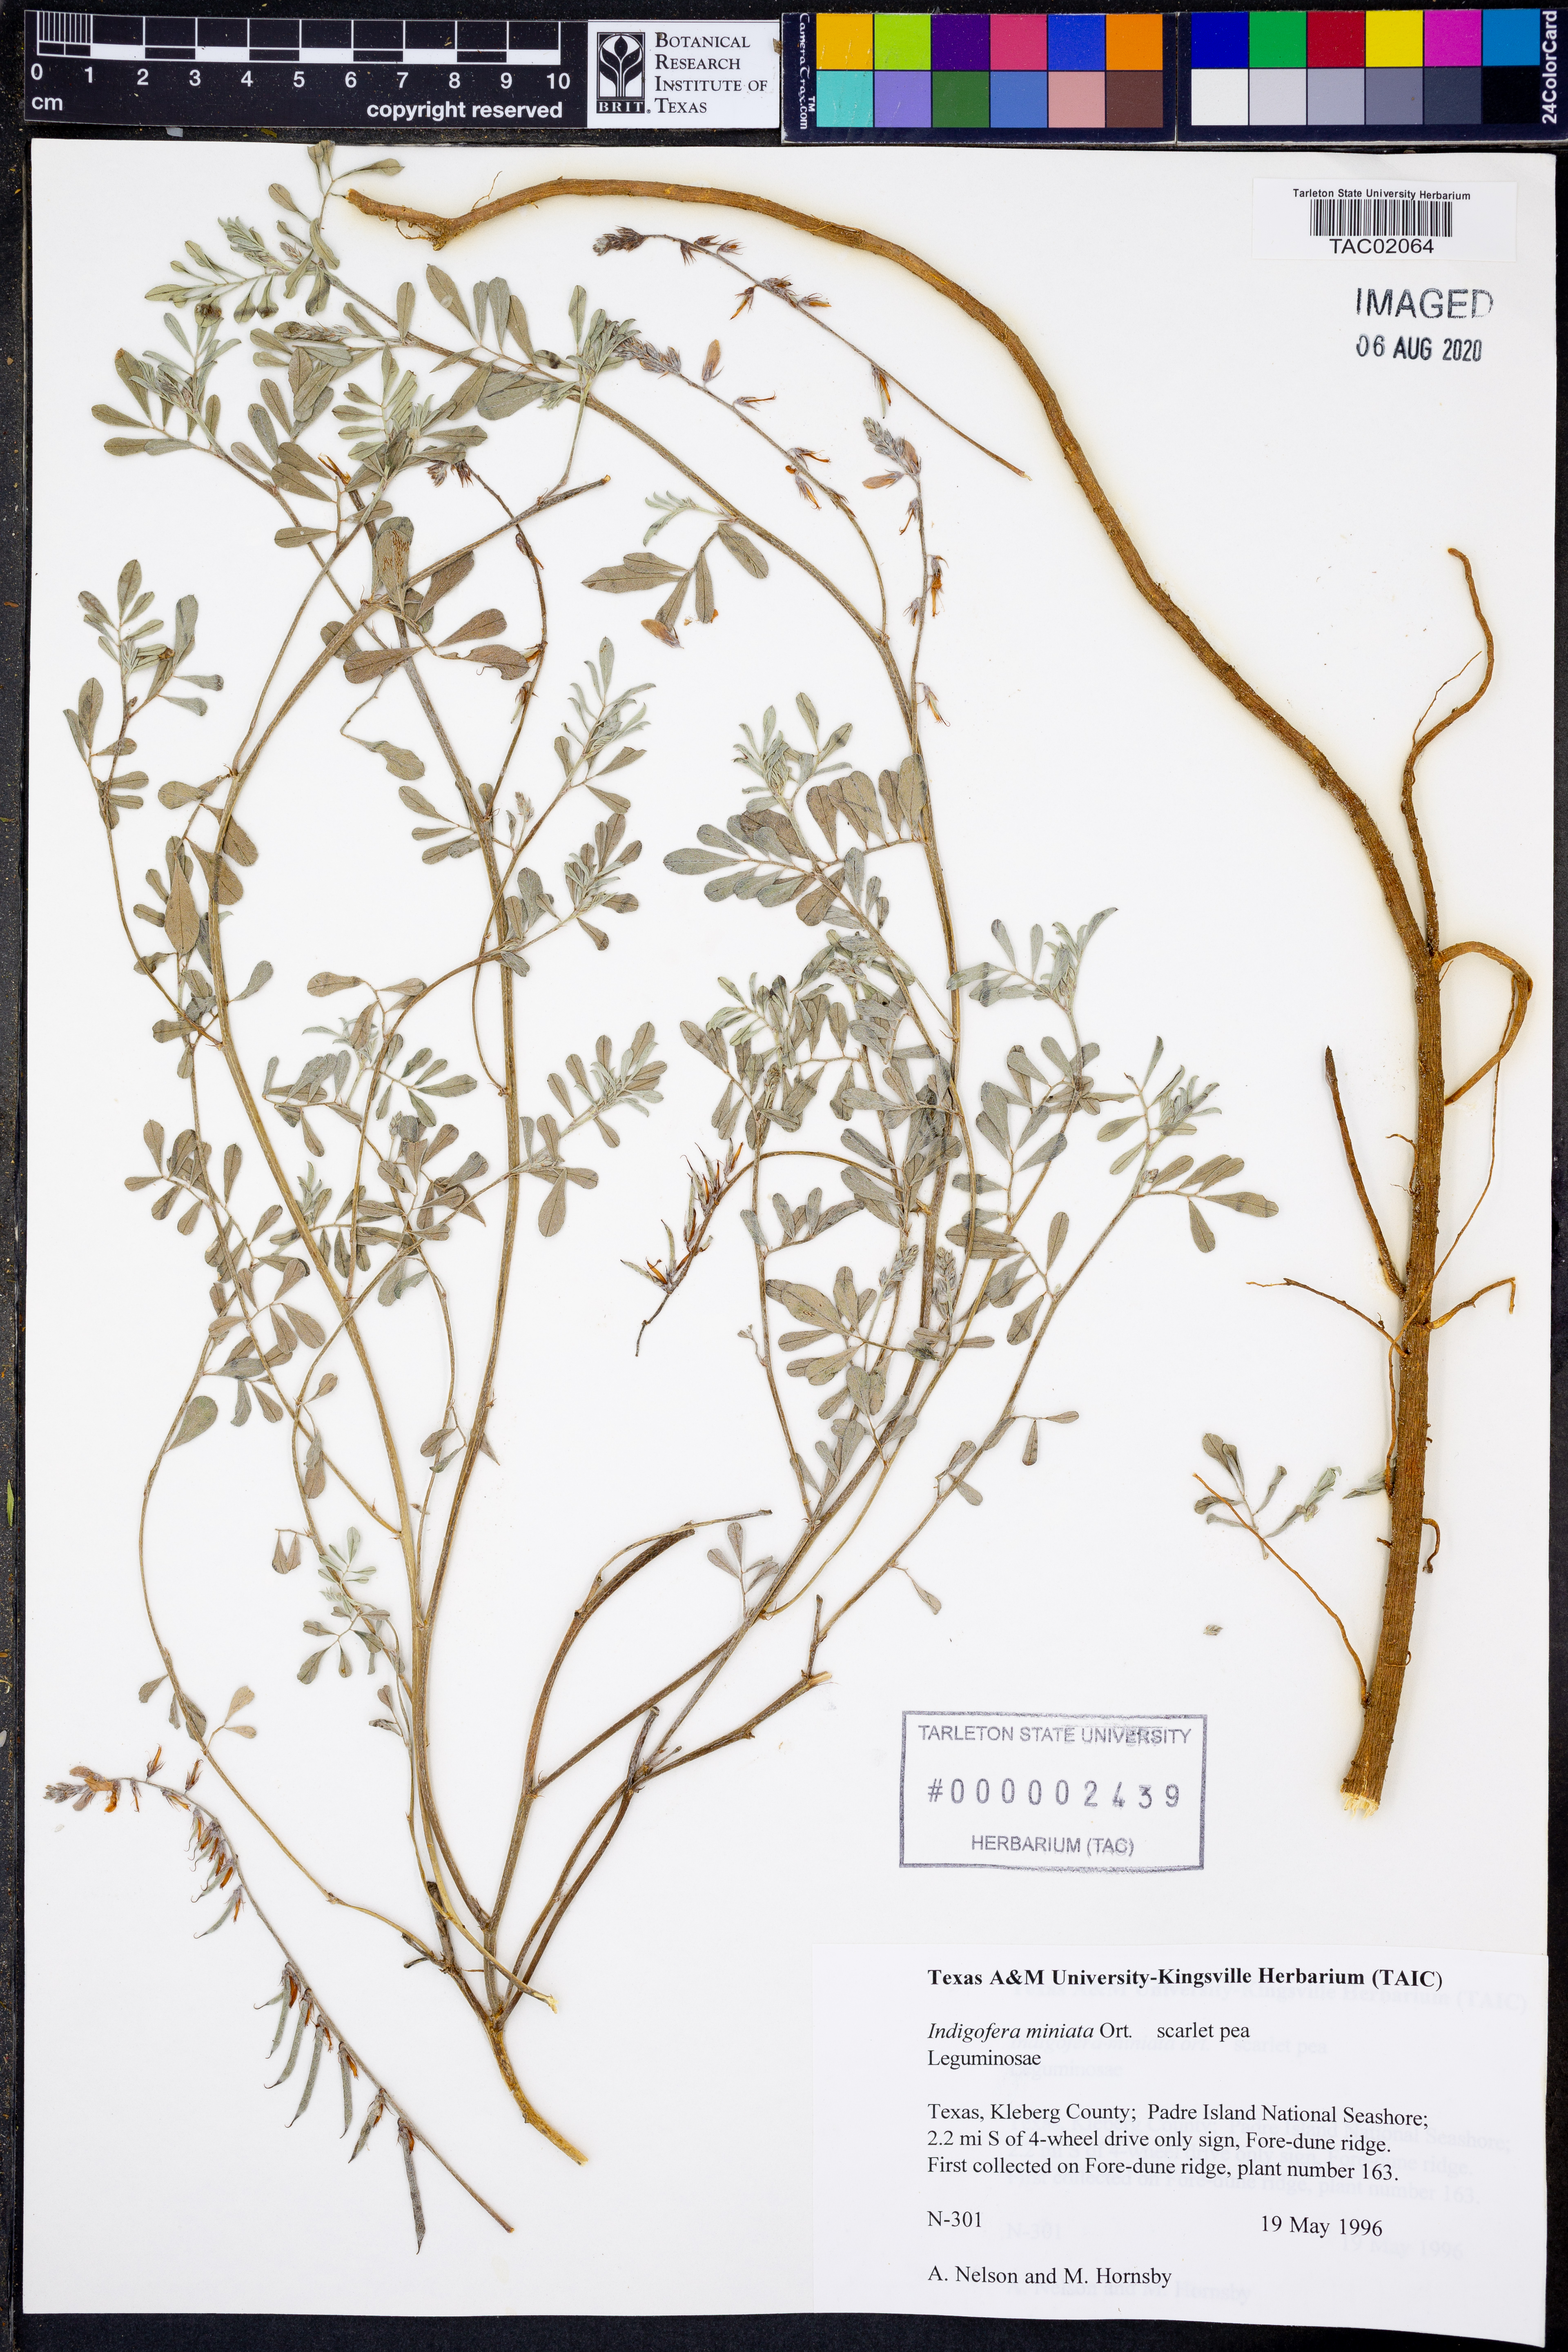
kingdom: Plantae
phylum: Tracheophyta
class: Magnoliopsida
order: Fabales
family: Fabaceae
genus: Indigofera
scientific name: Indigofera miniata
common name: Coast indigo
